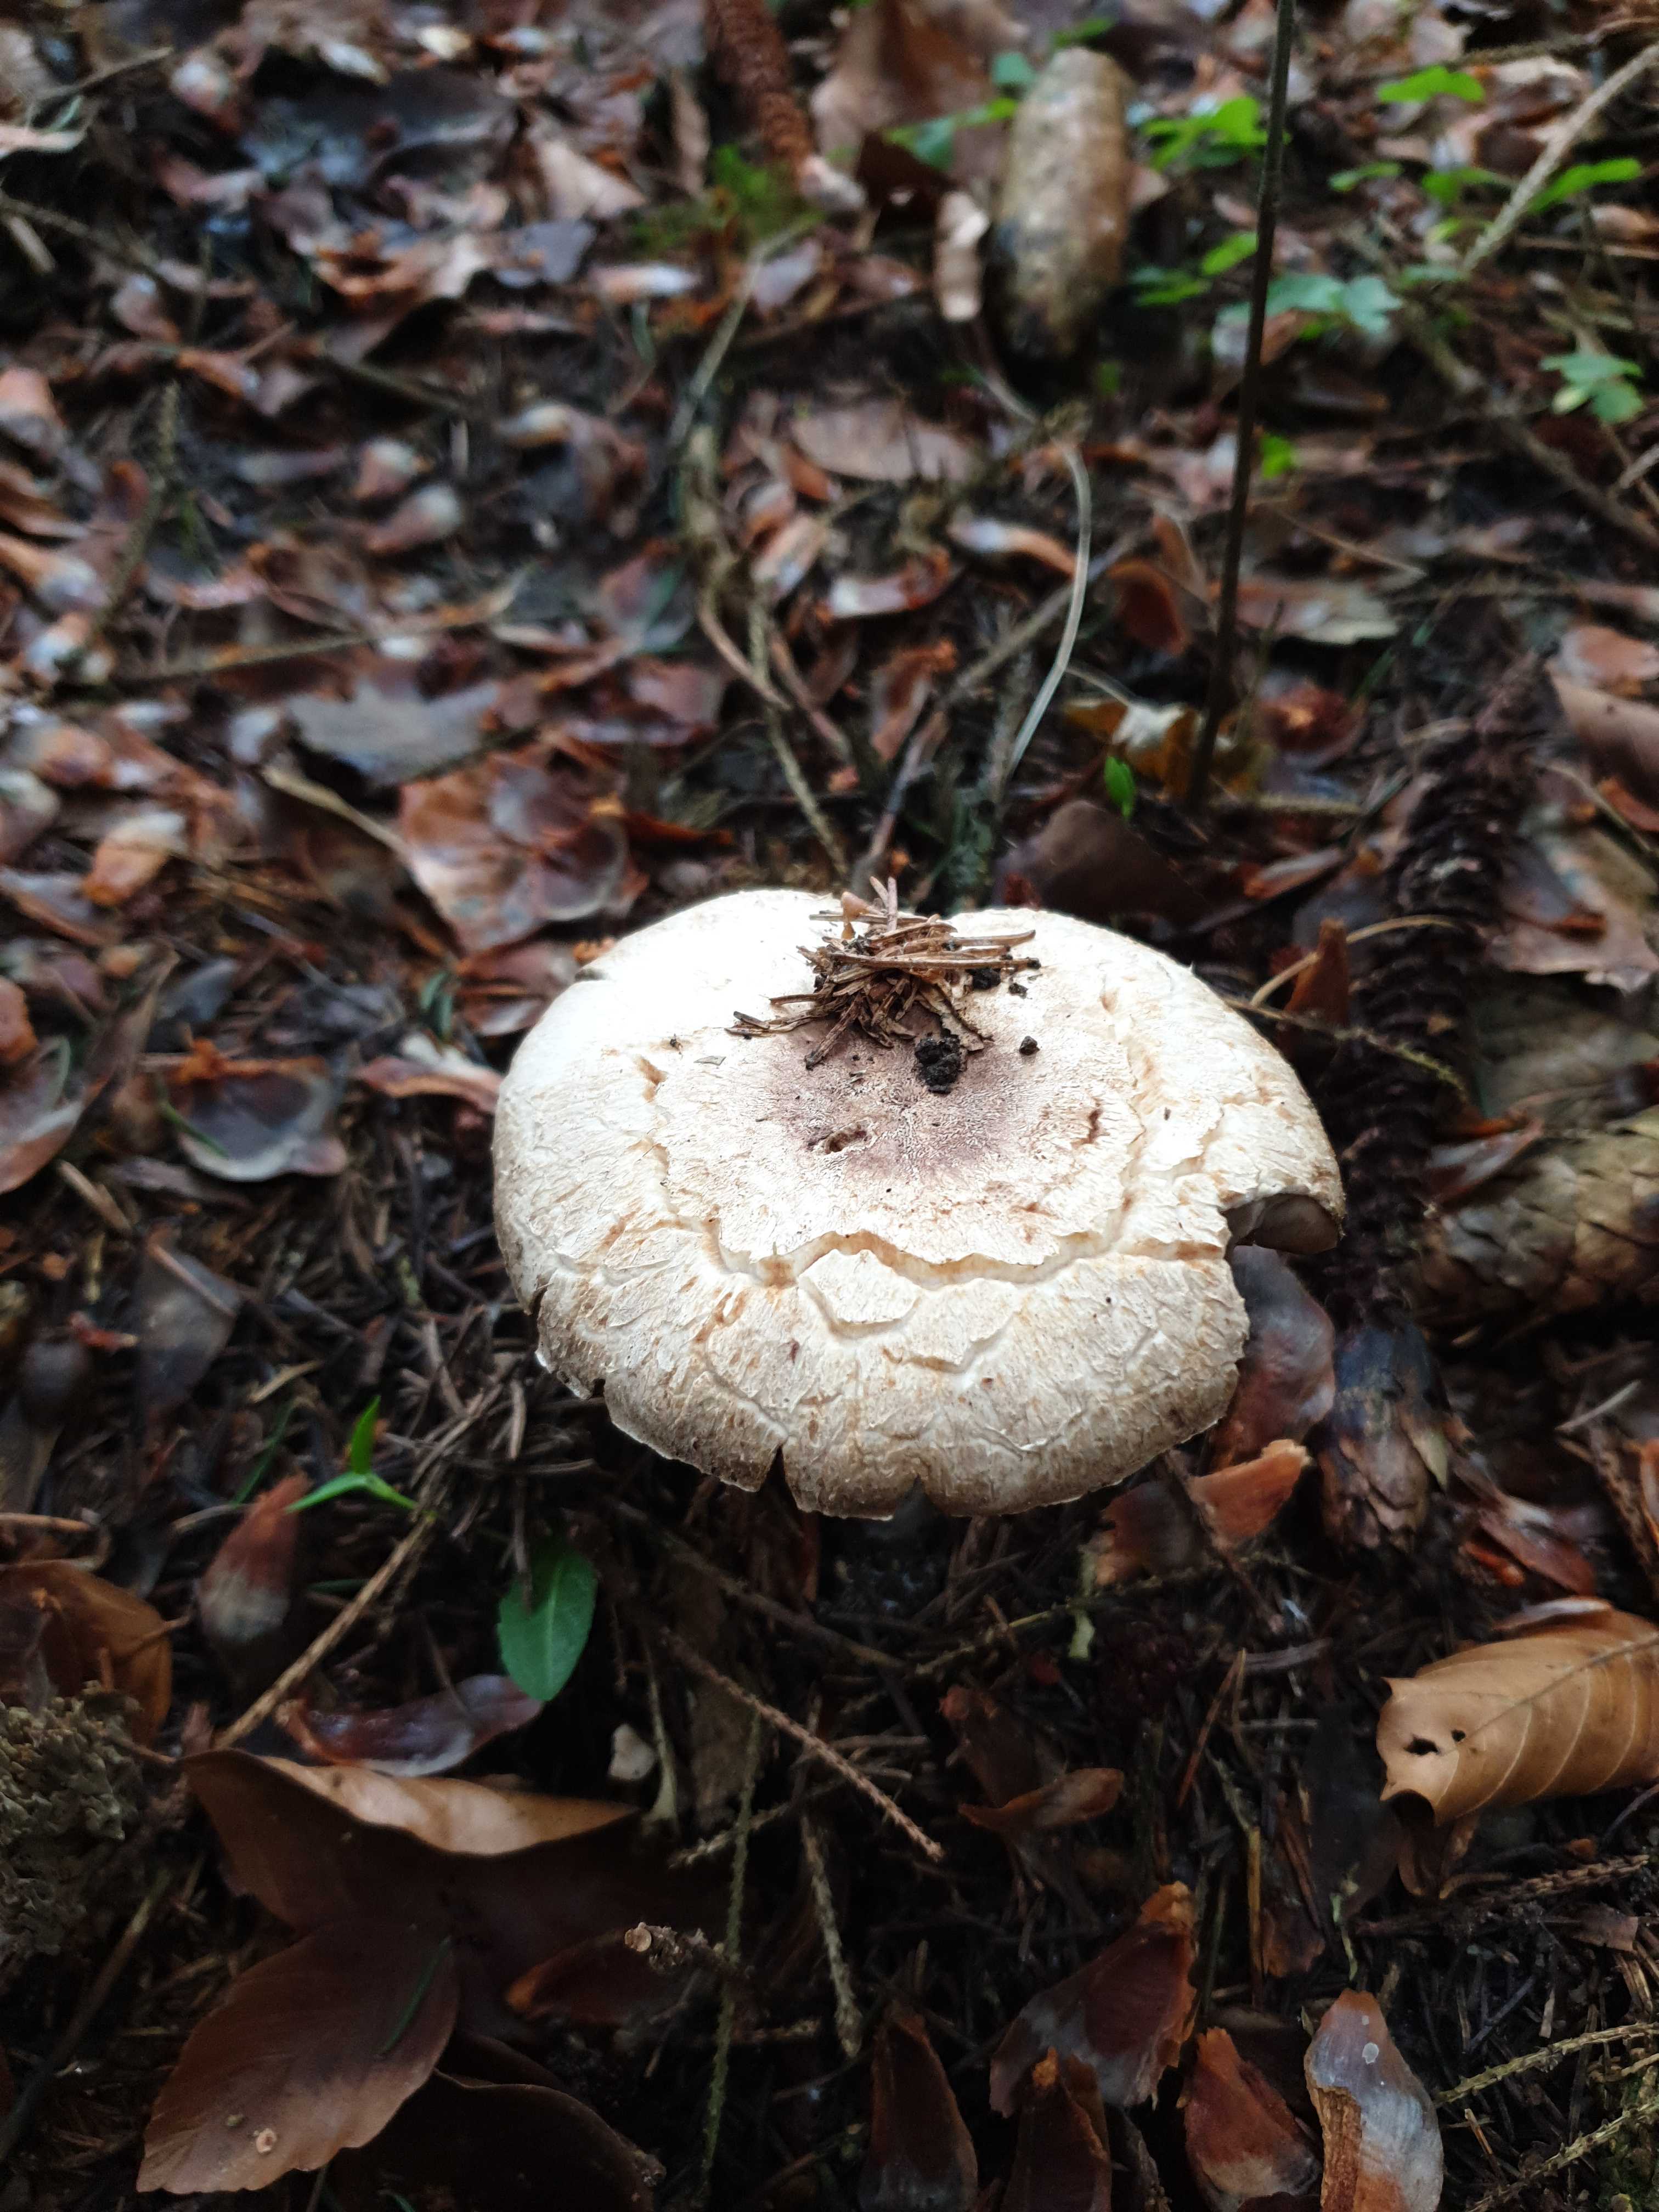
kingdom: Fungi
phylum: Basidiomycota
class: Agaricomycetes
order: Agaricales
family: Agaricaceae
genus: Agaricus
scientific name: Agaricus
